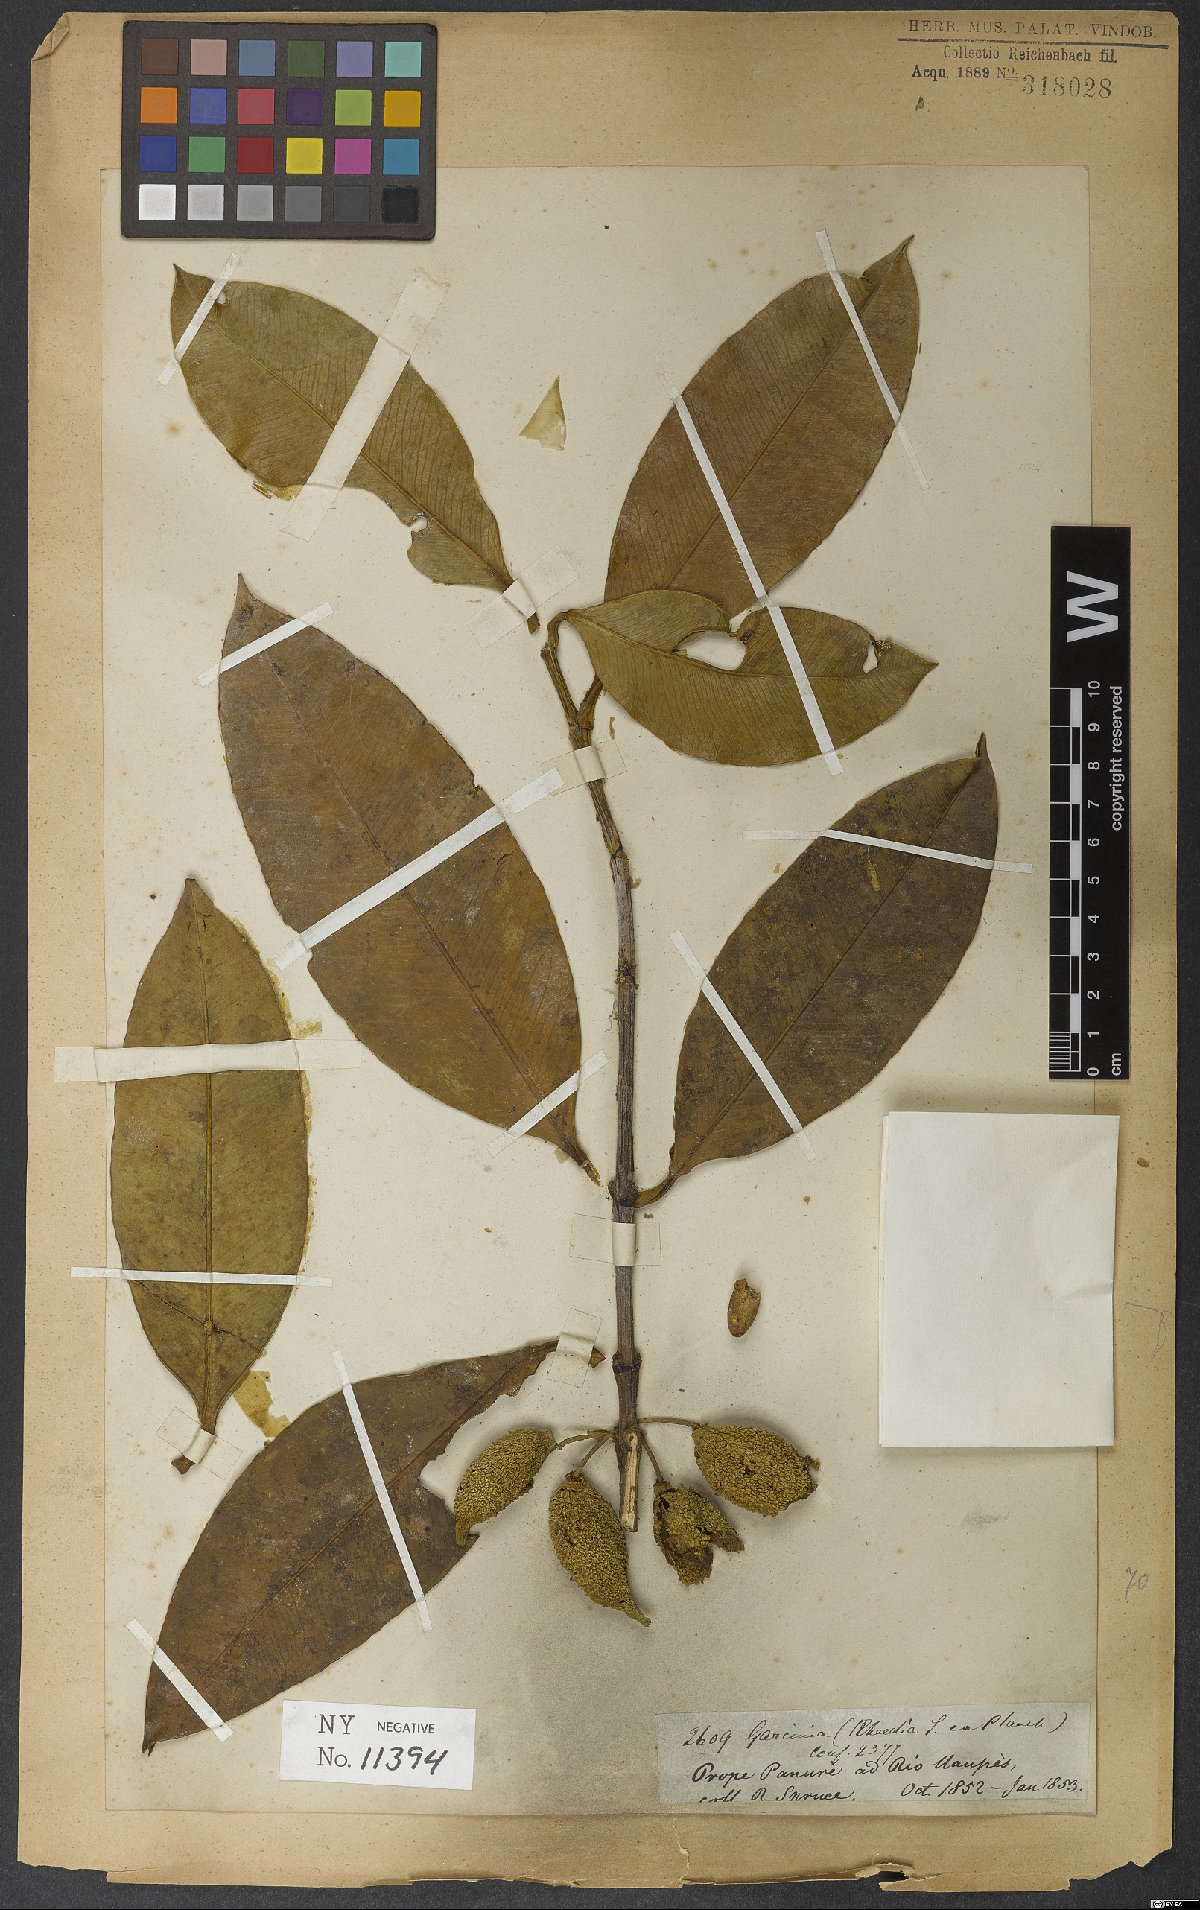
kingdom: Plantae
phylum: Tracheophyta
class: Magnoliopsida
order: Malpighiales
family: Clusiaceae
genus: Garcinia
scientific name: Garcinia madruno
